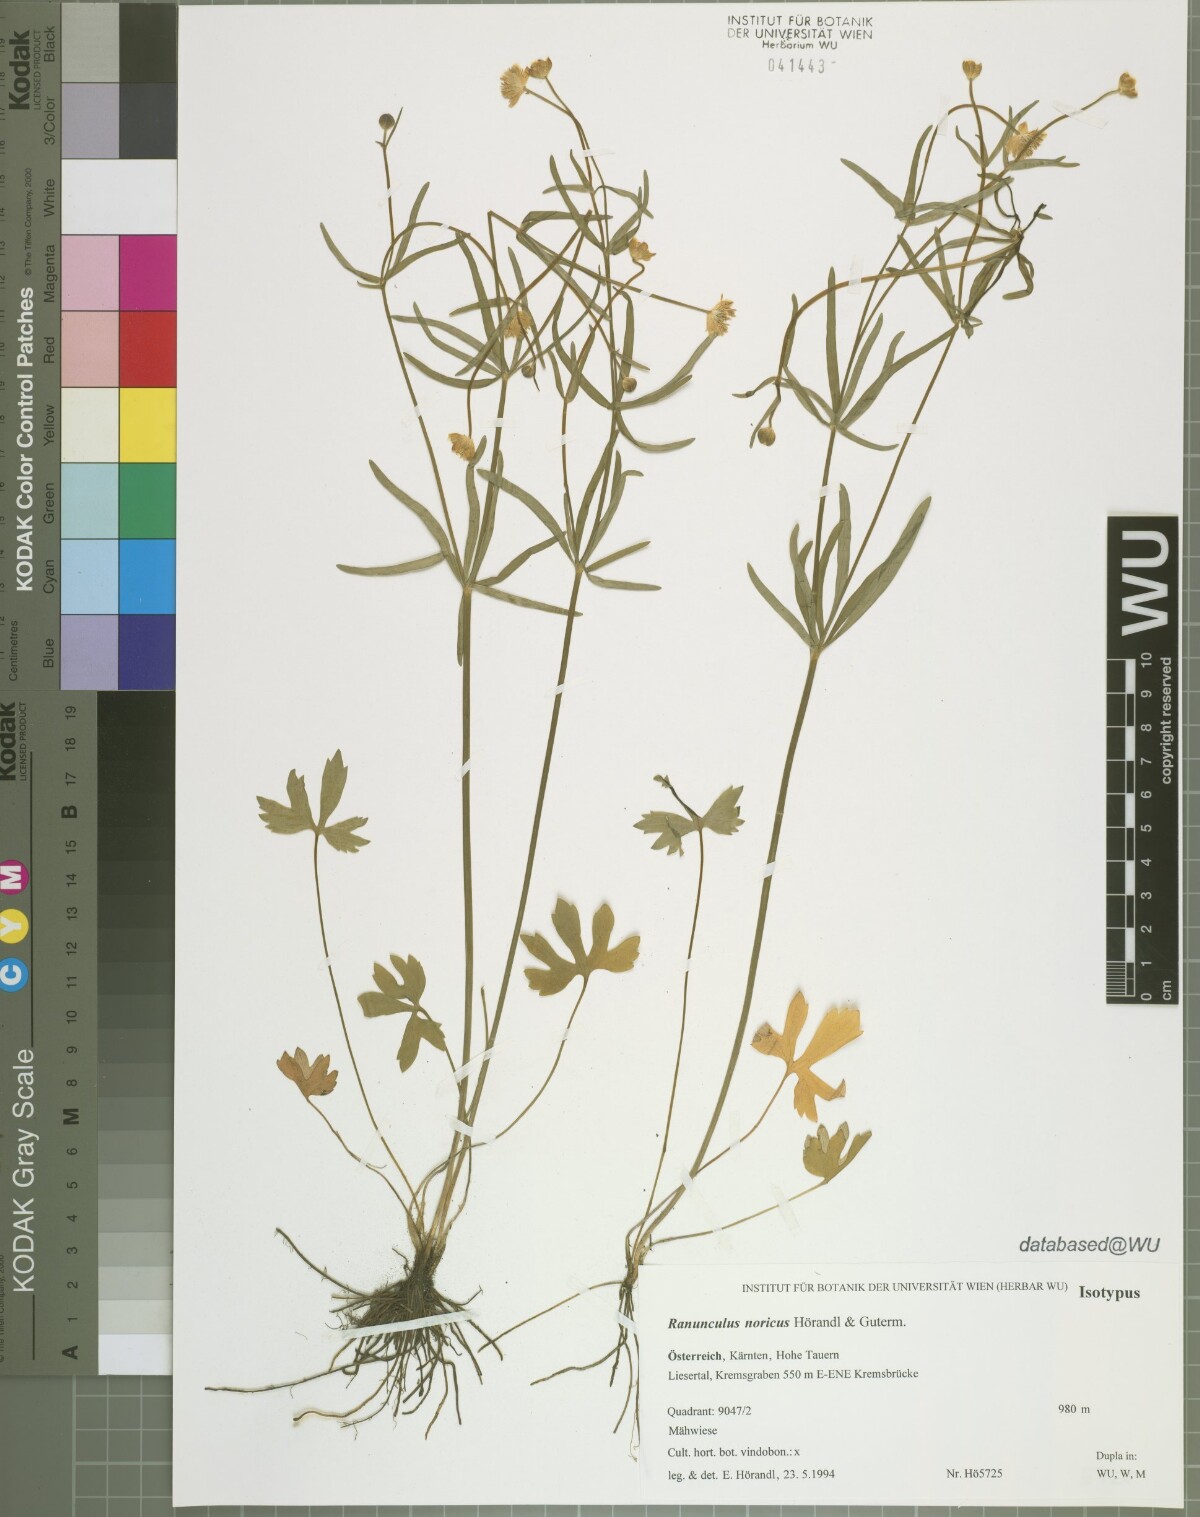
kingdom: Plantae
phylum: Tracheophyta
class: Magnoliopsida
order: Ranunculales
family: Ranunculaceae
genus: Ranunculus
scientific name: Ranunculus noricus
